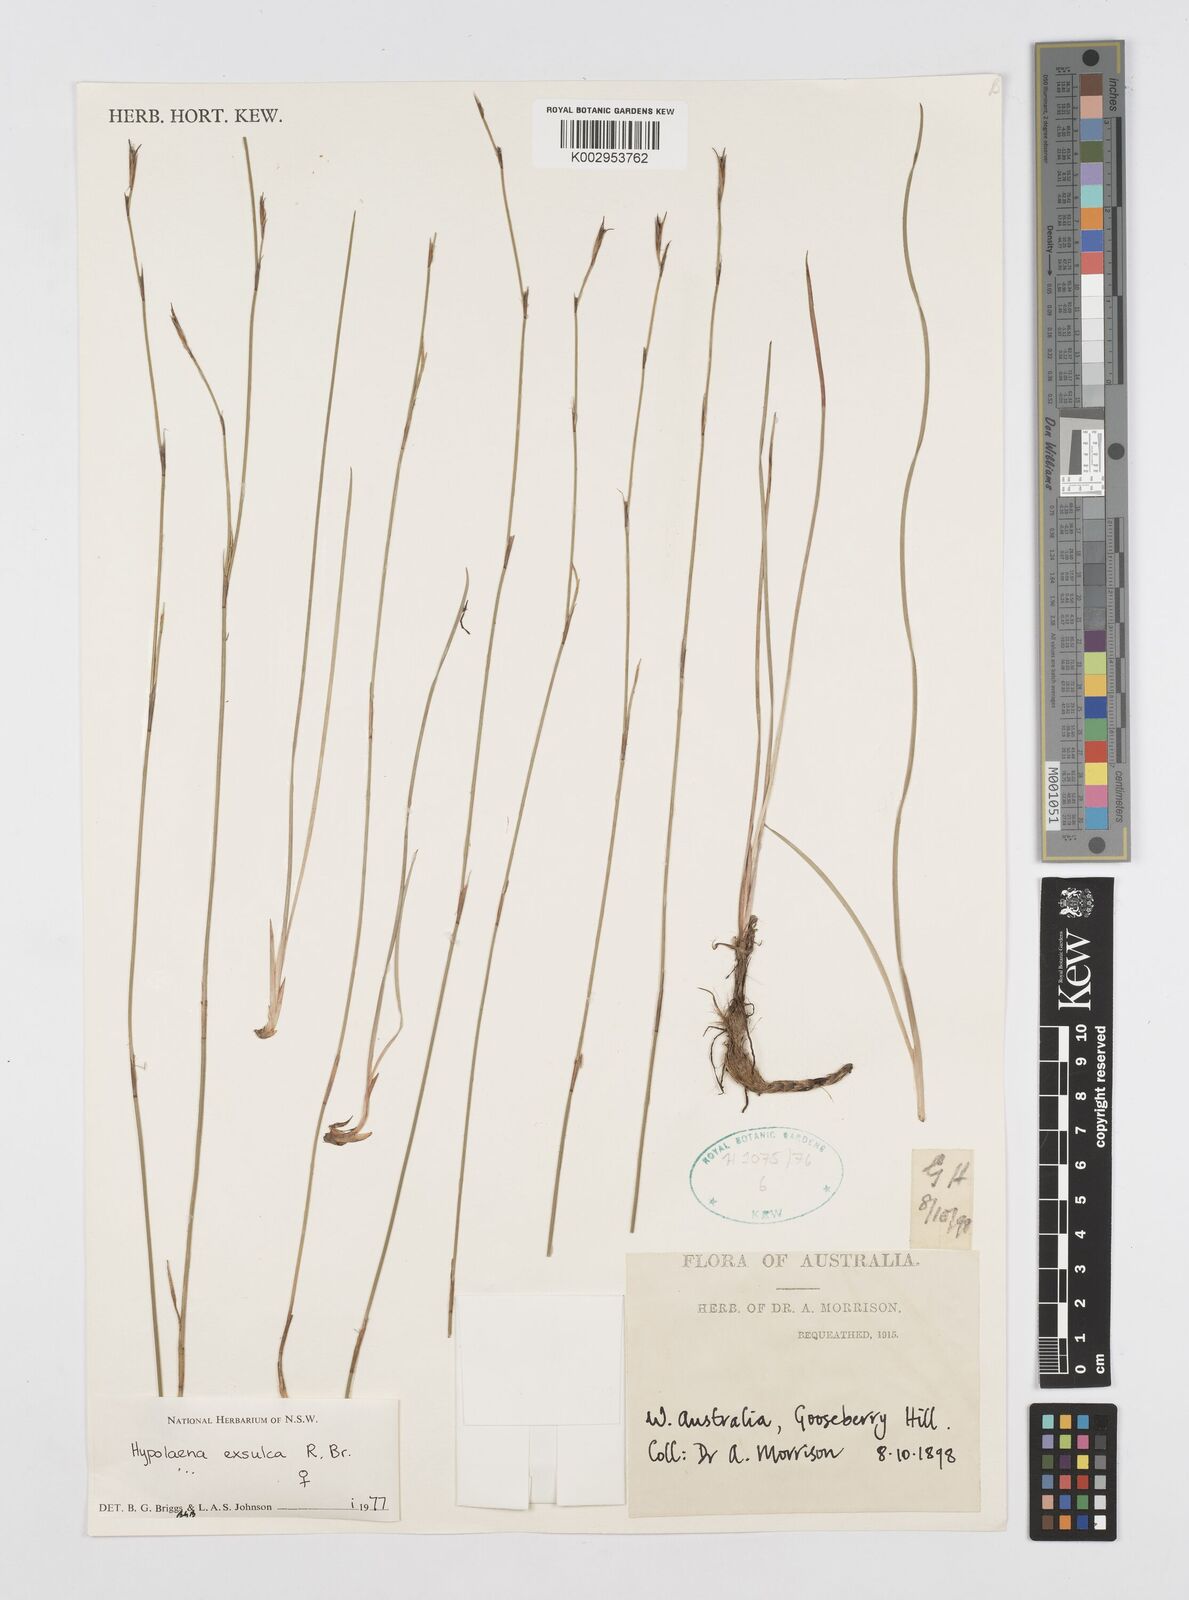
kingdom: Plantae
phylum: Tracheophyta
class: Liliopsida
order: Poales
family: Restionaceae
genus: Hypolaena
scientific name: Hypolaena exsulca
